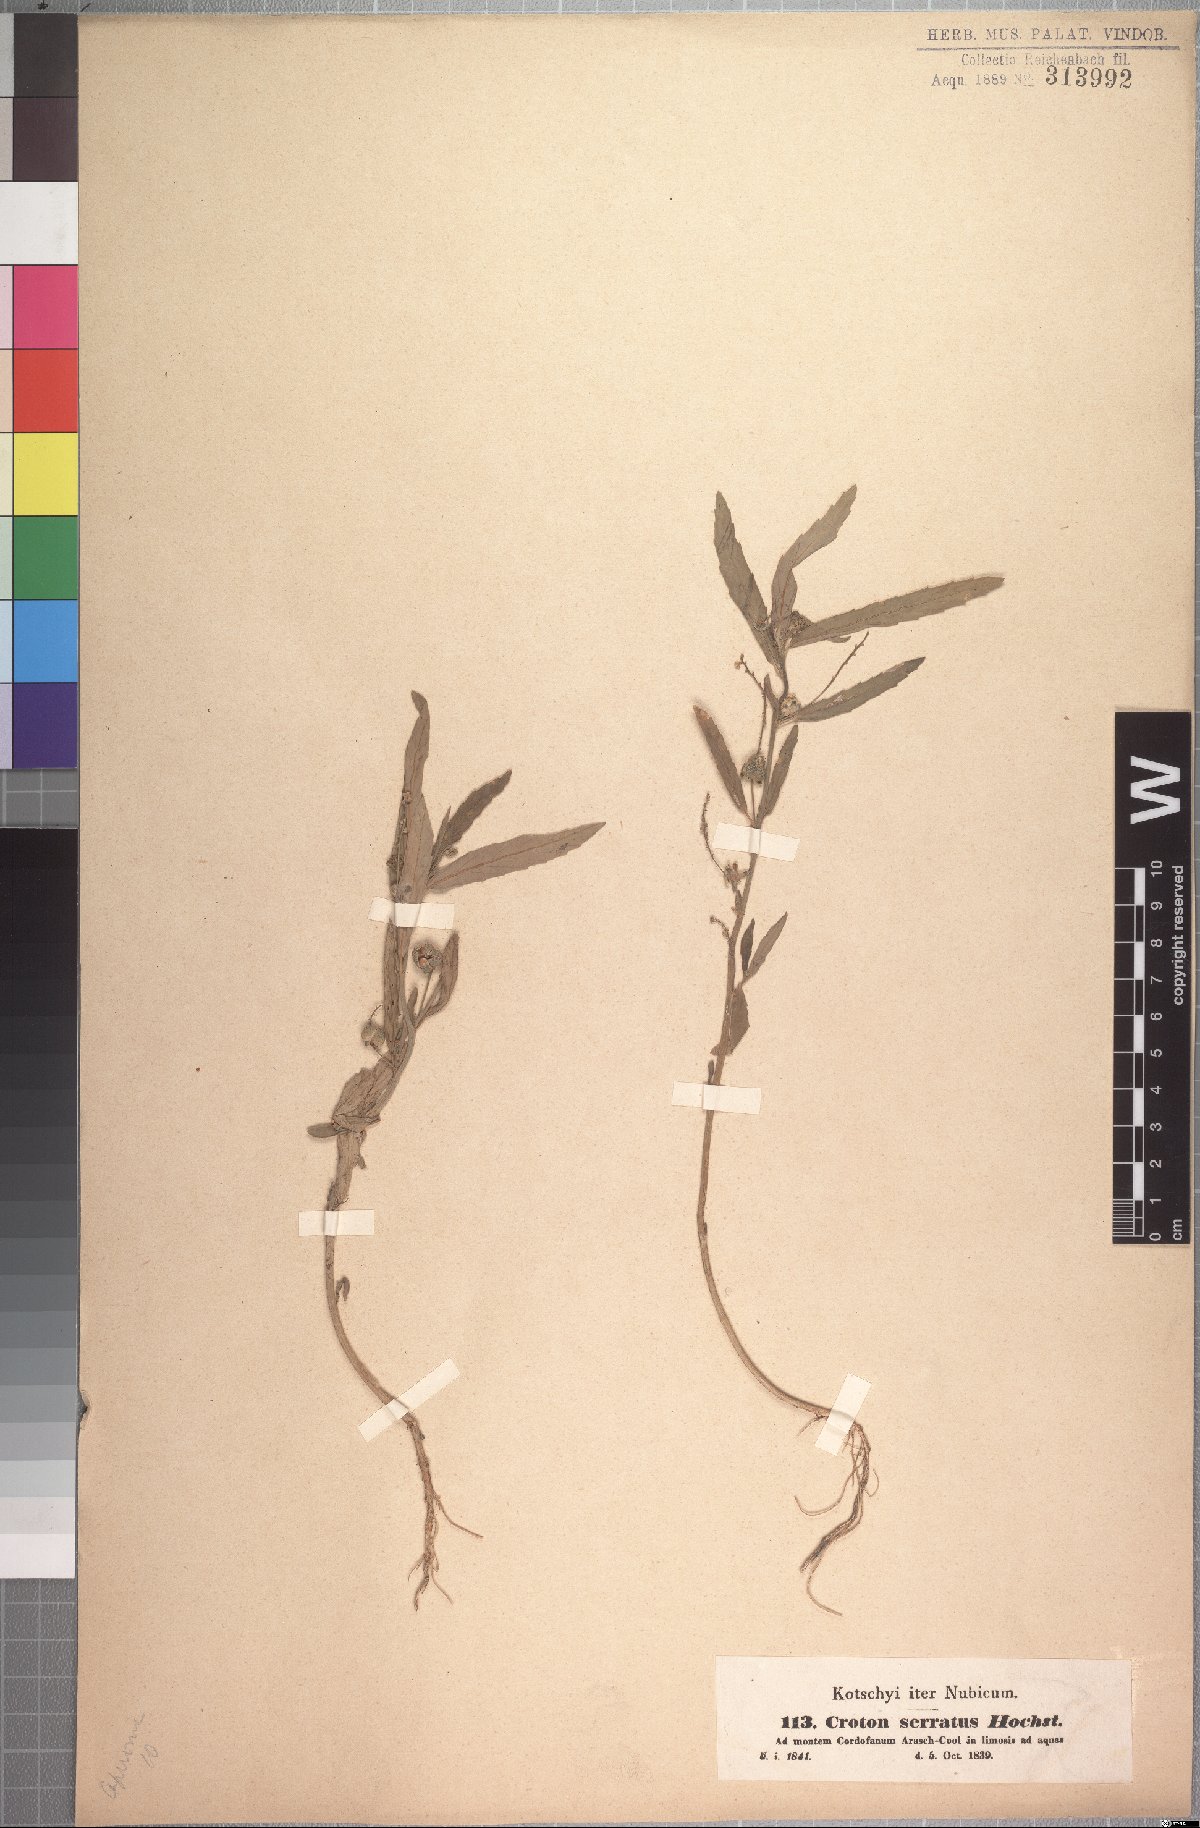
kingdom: Plantae
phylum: Tracheophyta
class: Magnoliopsida
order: Malpighiales
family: Euphorbiaceae
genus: Caperonia
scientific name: Caperonia serrata
